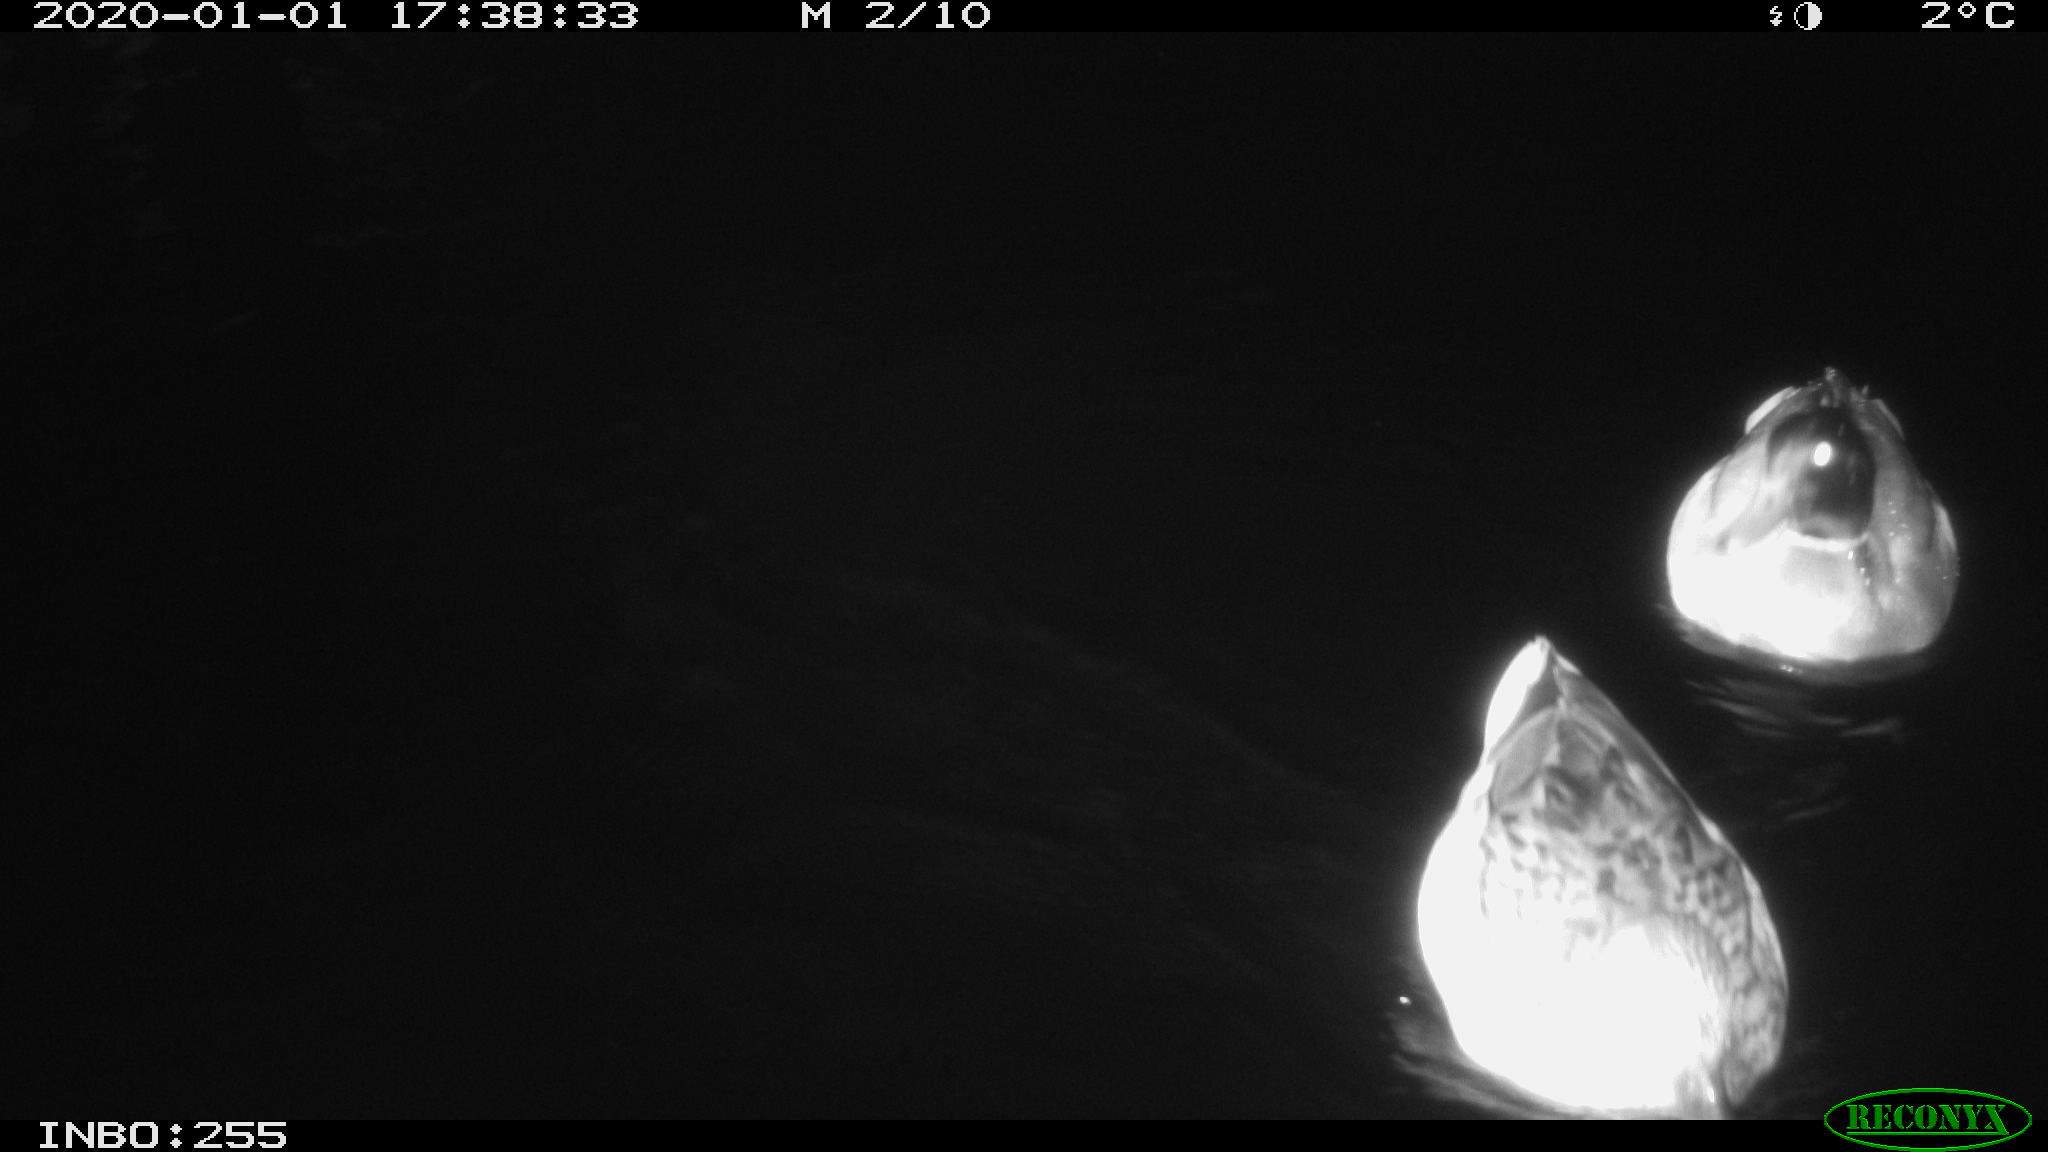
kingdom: Animalia
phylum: Chordata
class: Aves
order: Anseriformes
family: Anatidae
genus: Anas
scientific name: Anas platyrhynchos
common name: Mallard
